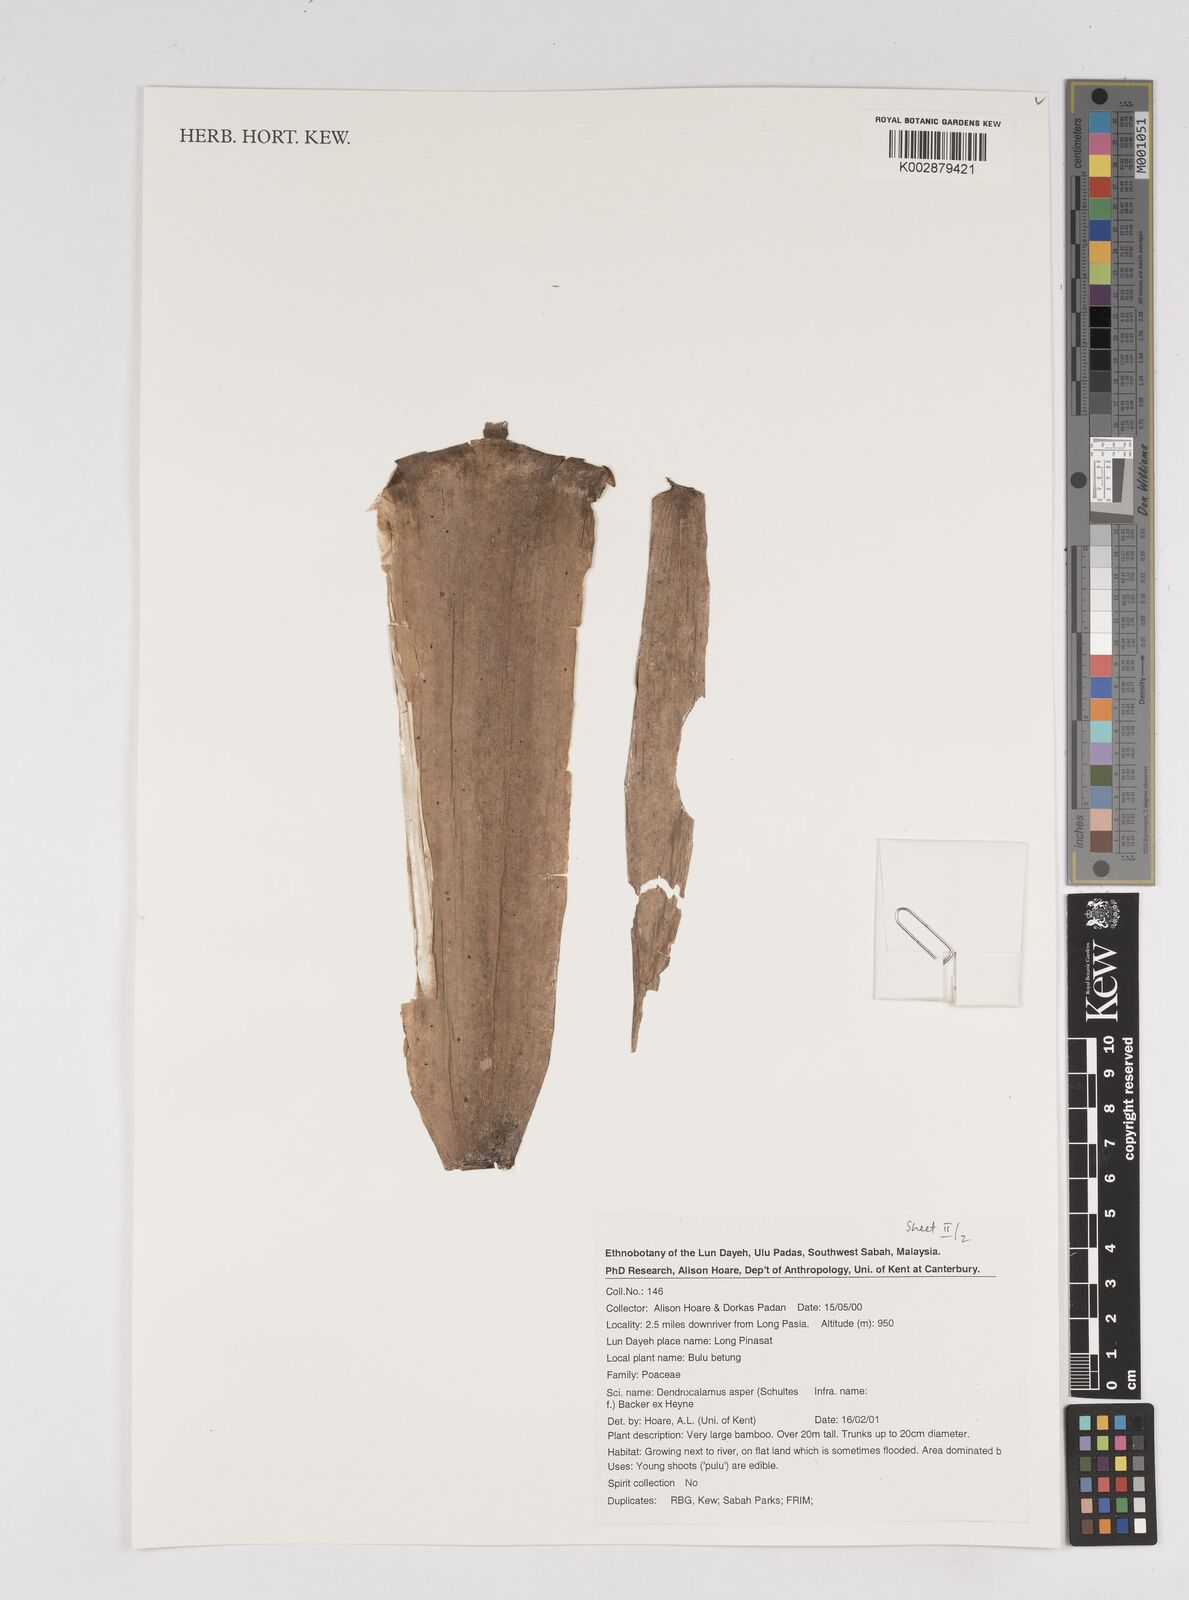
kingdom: Plantae
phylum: Tracheophyta
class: Liliopsida
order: Poales
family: Poaceae
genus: Dendrocalamus
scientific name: Dendrocalamus asper
